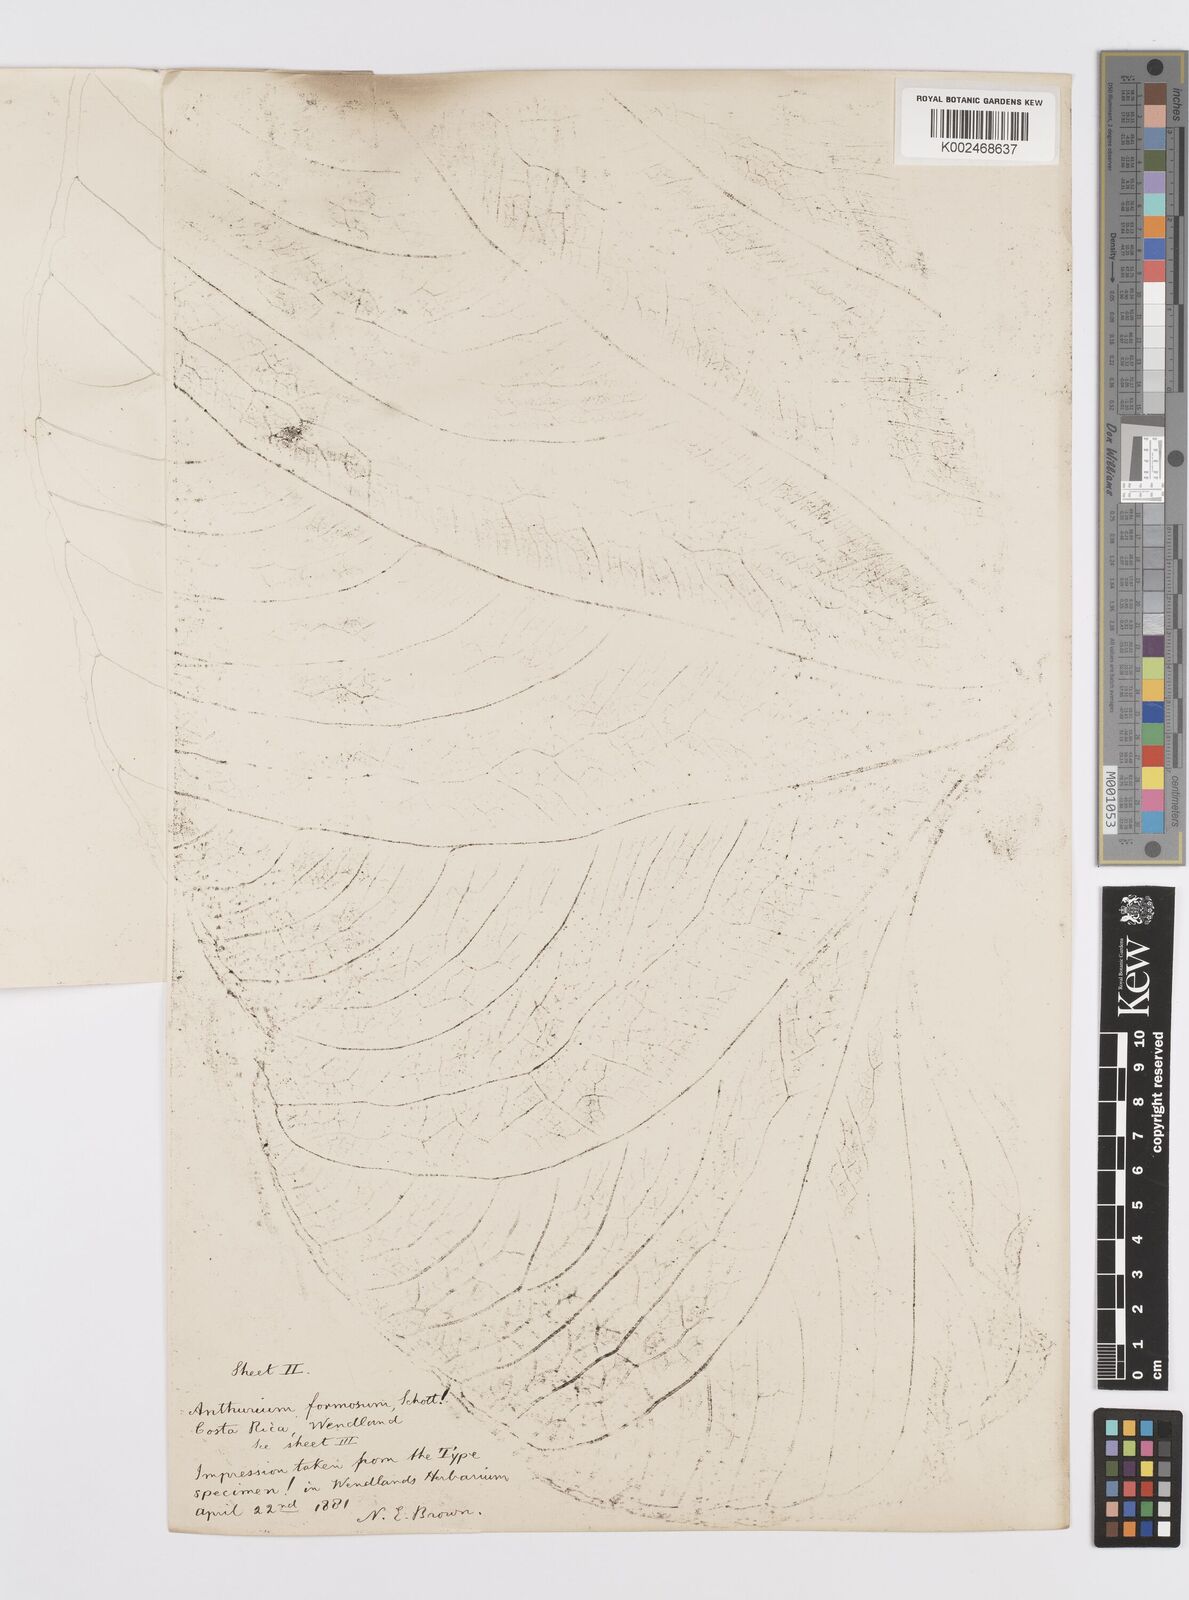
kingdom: Plantae
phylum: Tracheophyta
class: Liliopsida
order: Alismatales
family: Araceae
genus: Anthurium
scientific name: Anthurium formosum
